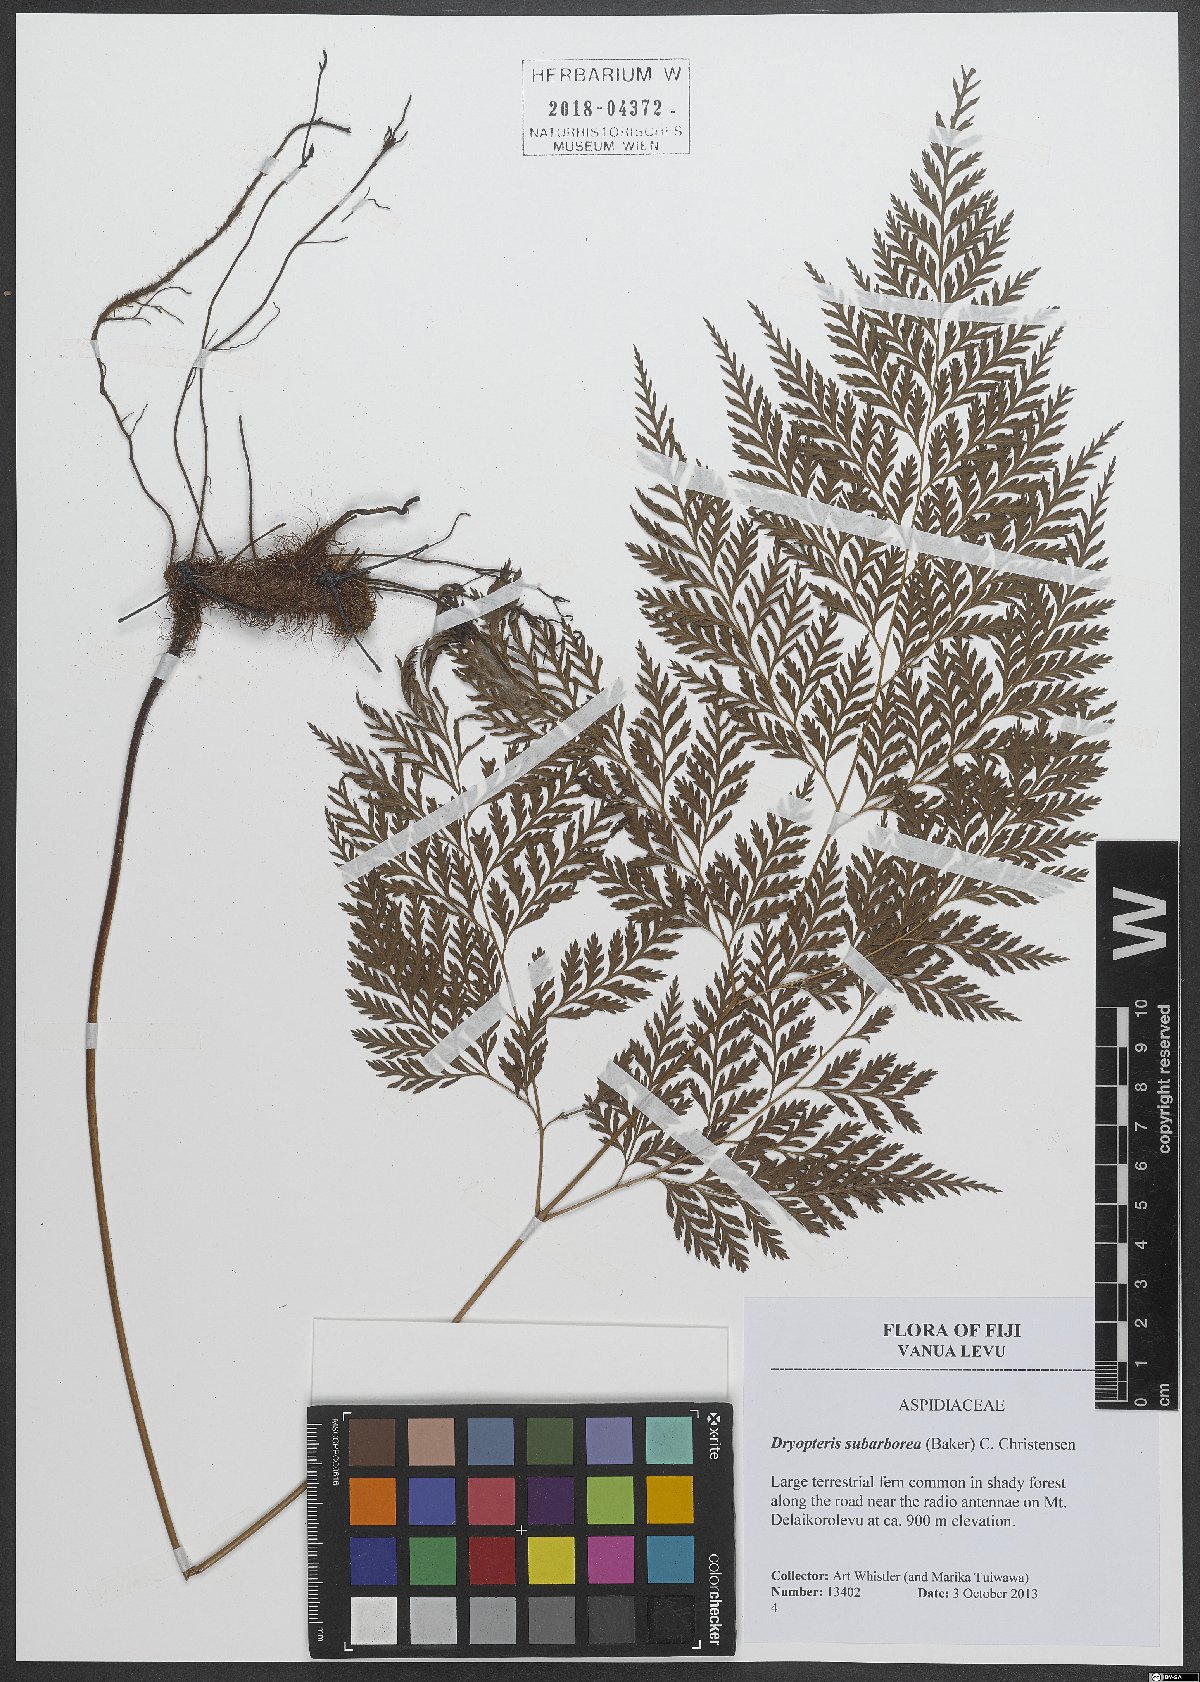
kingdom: Plantae
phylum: Tracheophyta
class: Polypodiopsida
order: Polypodiales
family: Dryopteridaceae
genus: Dryopteris
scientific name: Dryopteris subarborea
